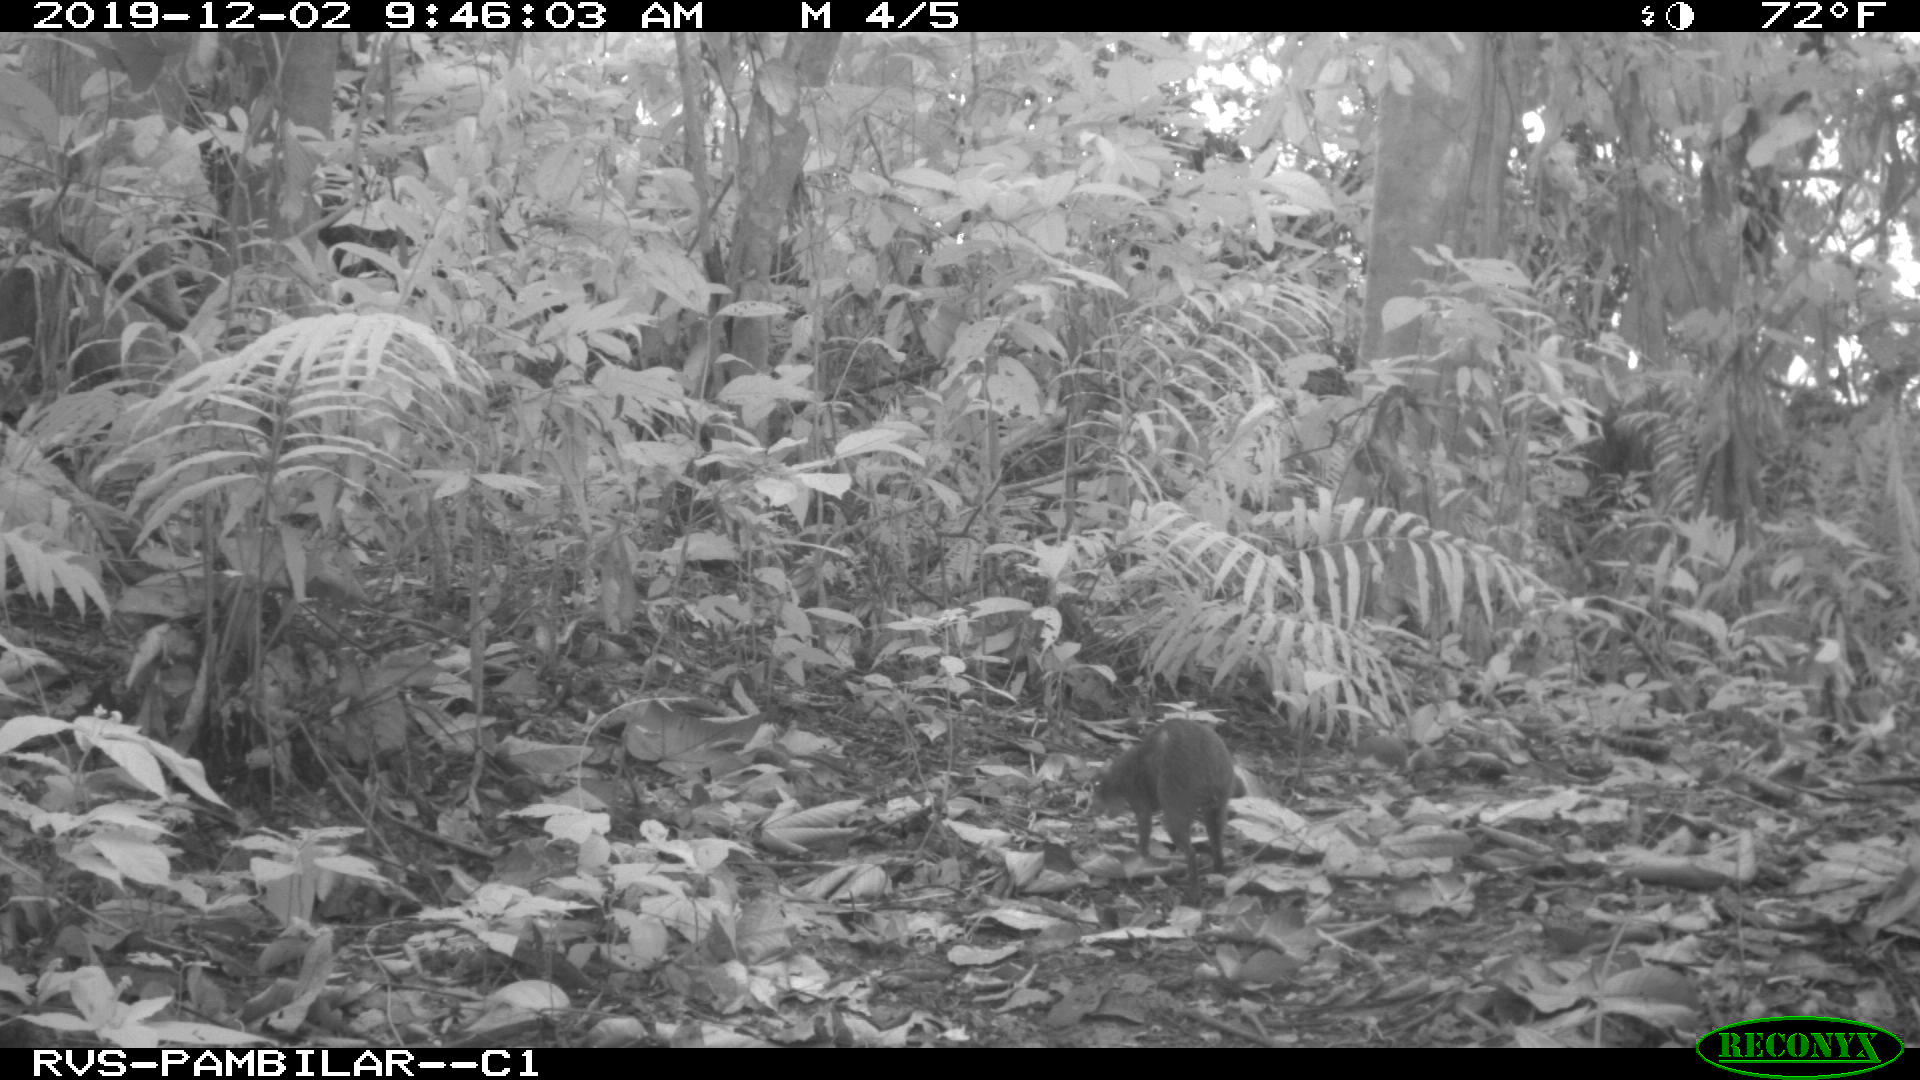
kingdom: Animalia
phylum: Chordata
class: Mammalia
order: Rodentia
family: Dasyproctidae
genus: Dasyprocta
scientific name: Dasyprocta punctata
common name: Central american agouti
